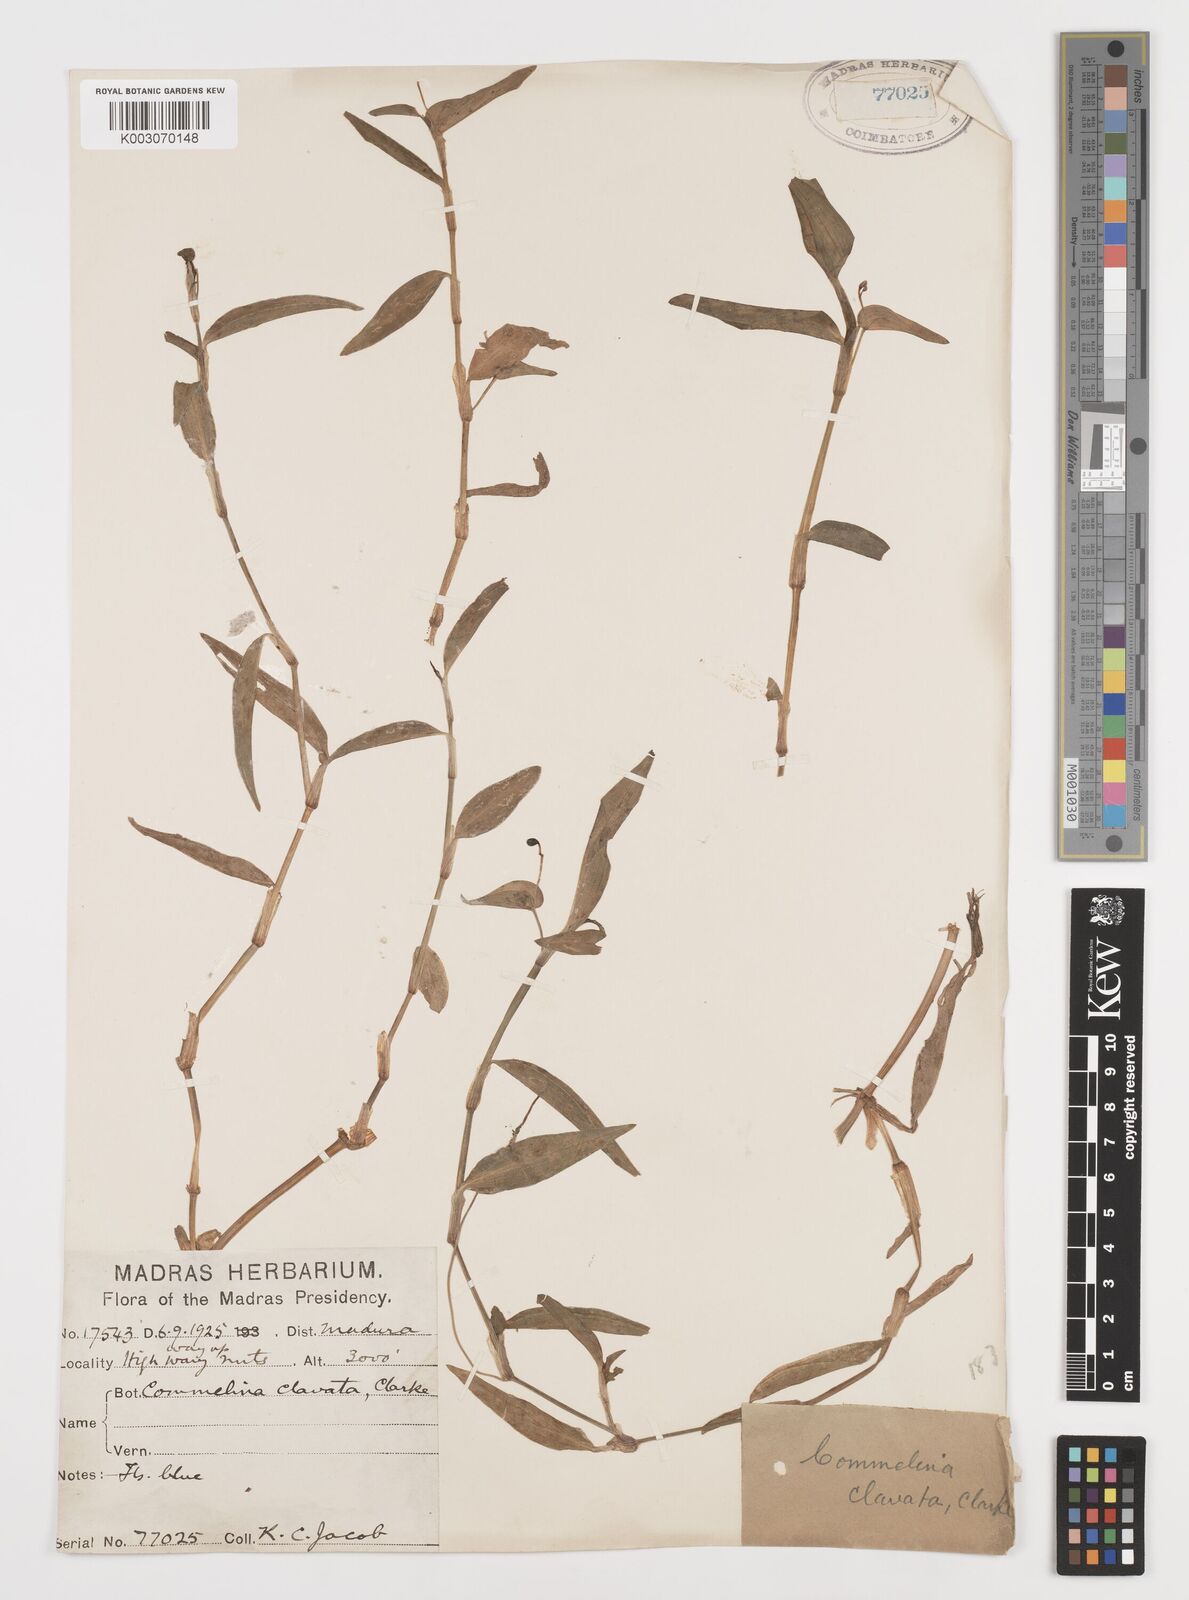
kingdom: Plantae
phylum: Tracheophyta
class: Liliopsida
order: Commelinales
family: Commelinaceae
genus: Commelina
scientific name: Commelina clavata
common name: Willow leaved dayflower
